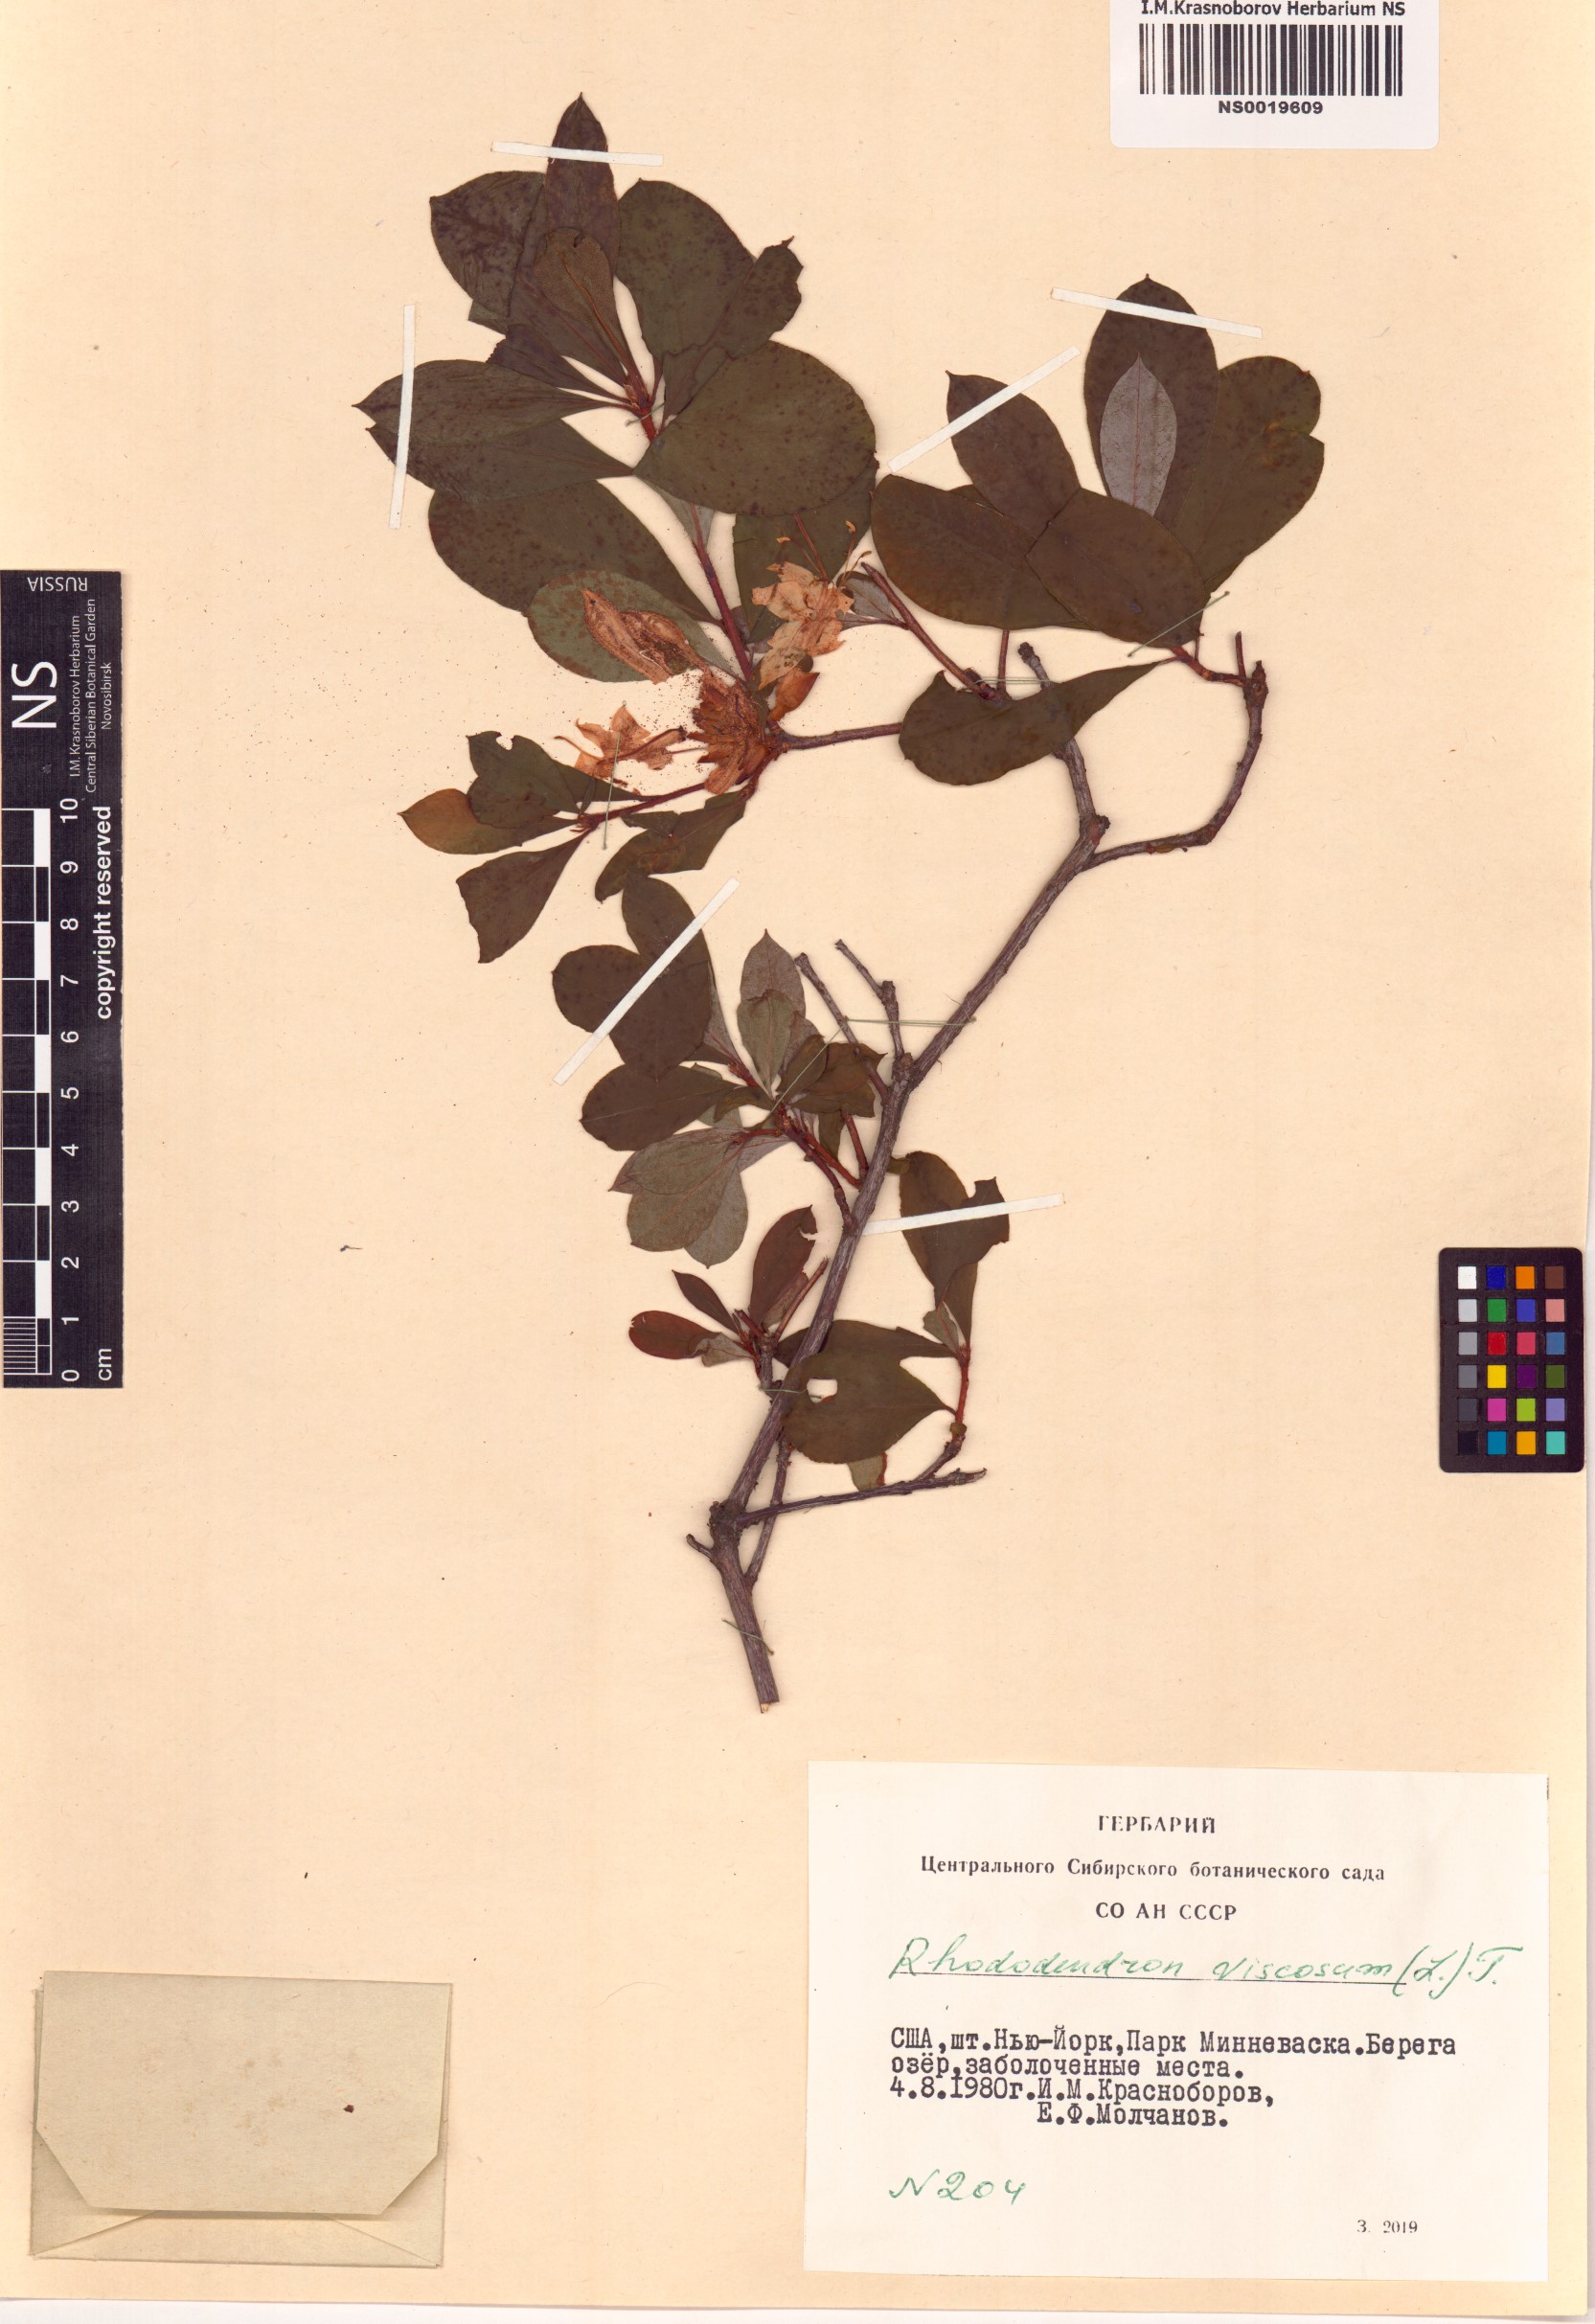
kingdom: Plantae
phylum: Tracheophyta
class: Magnoliopsida
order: Ericales
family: Ericaceae
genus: Rhododendron
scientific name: Rhododendron viscosum
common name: Clammy azalea
